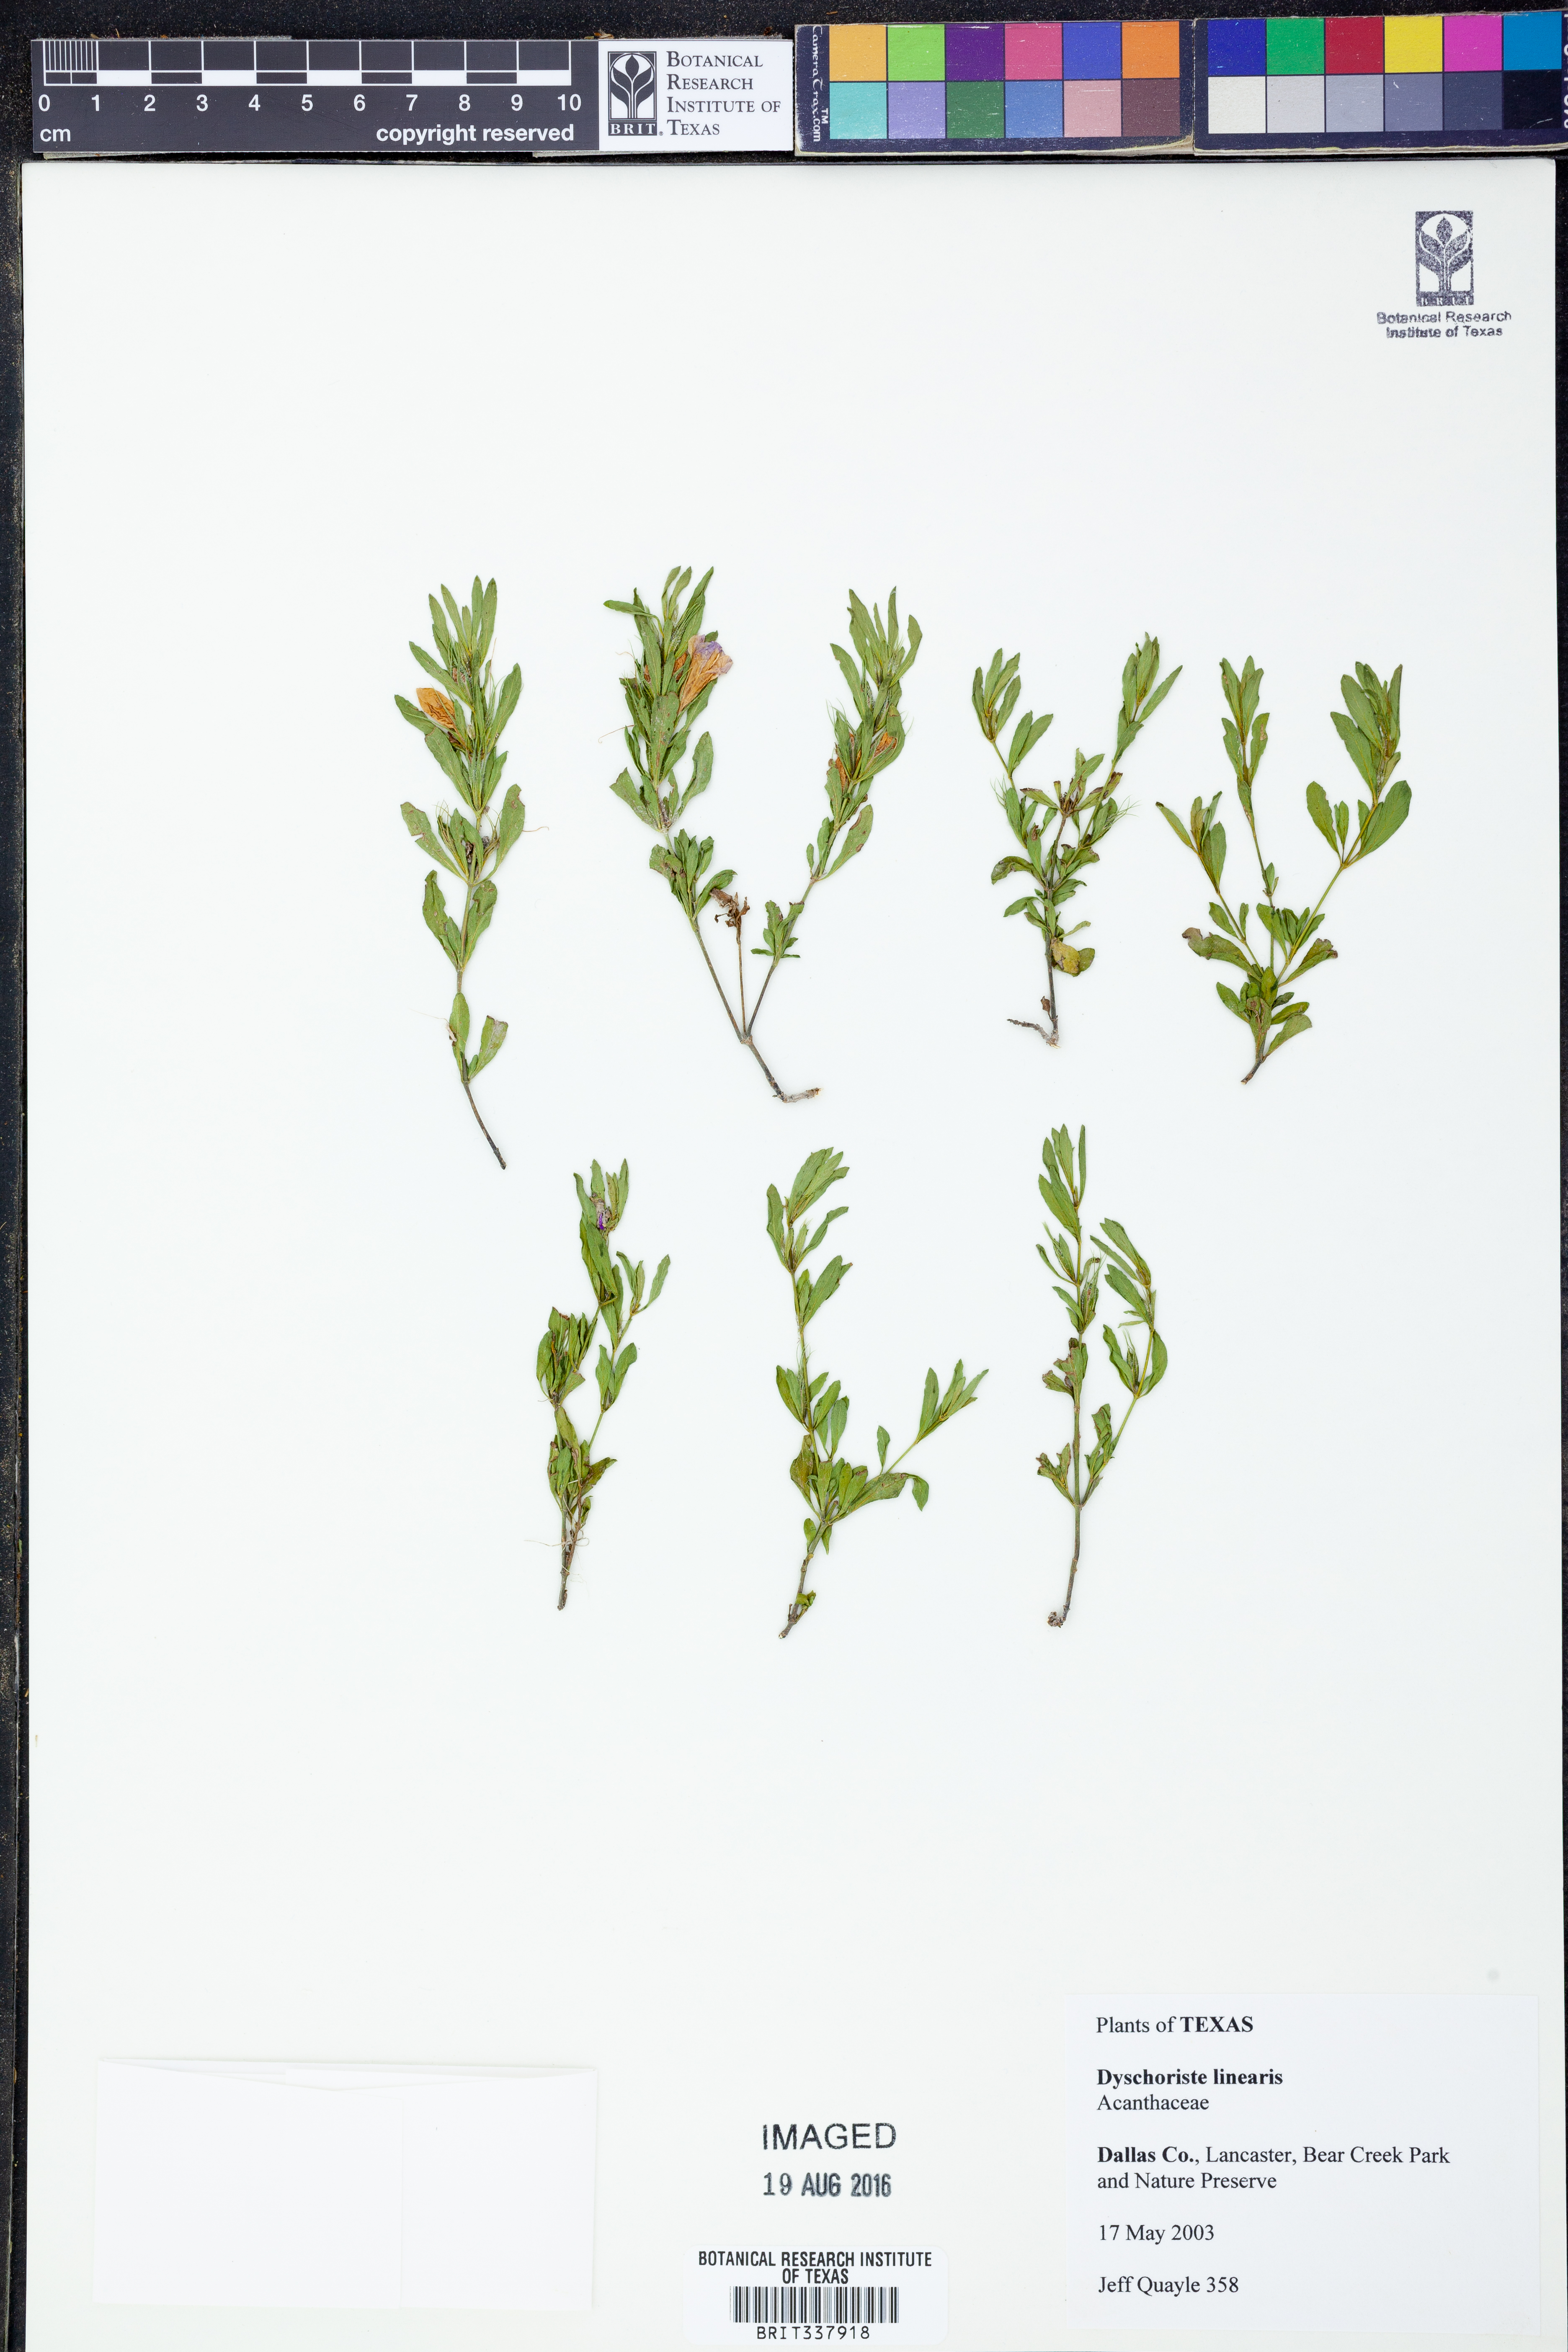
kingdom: Plantae
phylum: Tracheophyta
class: Magnoliopsida
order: Lamiales
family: Acanthaceae
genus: Dyschoriste
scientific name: Dyschoriste linearis
